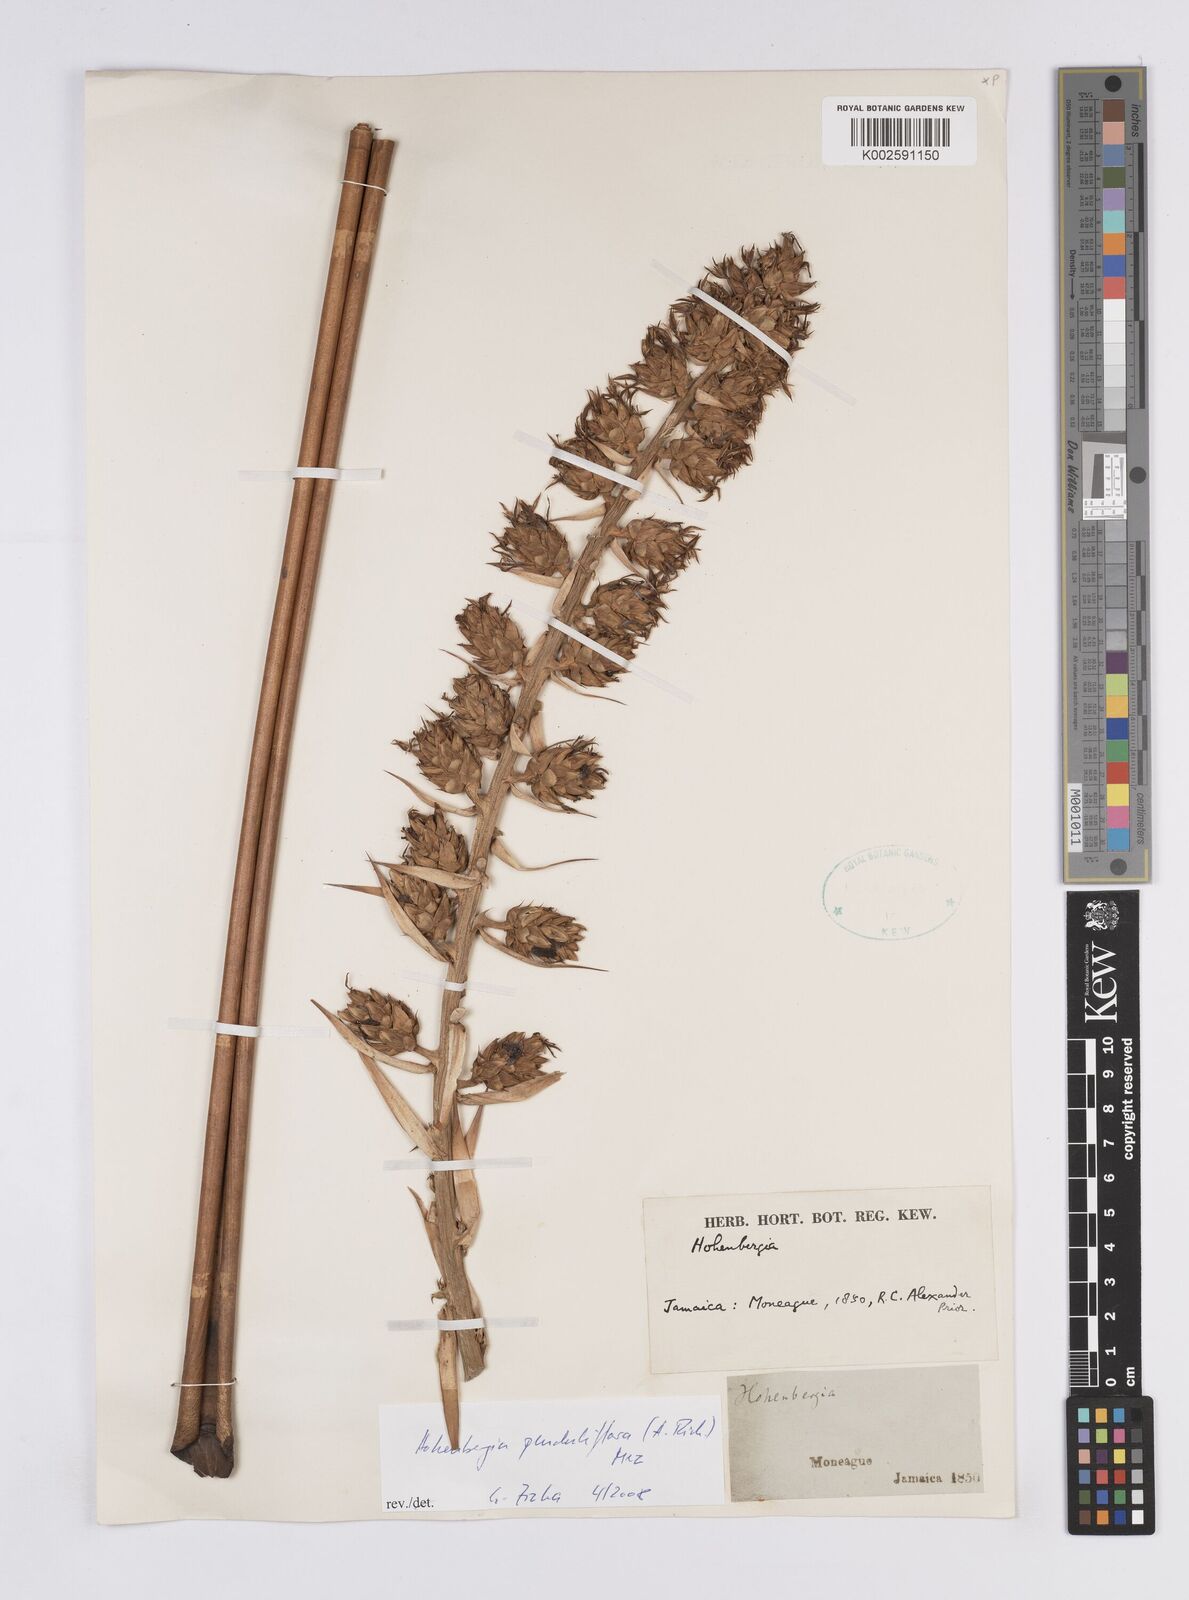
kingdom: Plantae
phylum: Tracheophyta
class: Liliopsida
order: Poales
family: Bromeliaceae
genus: Wittmackia
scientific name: Wittmackia penduliflora
